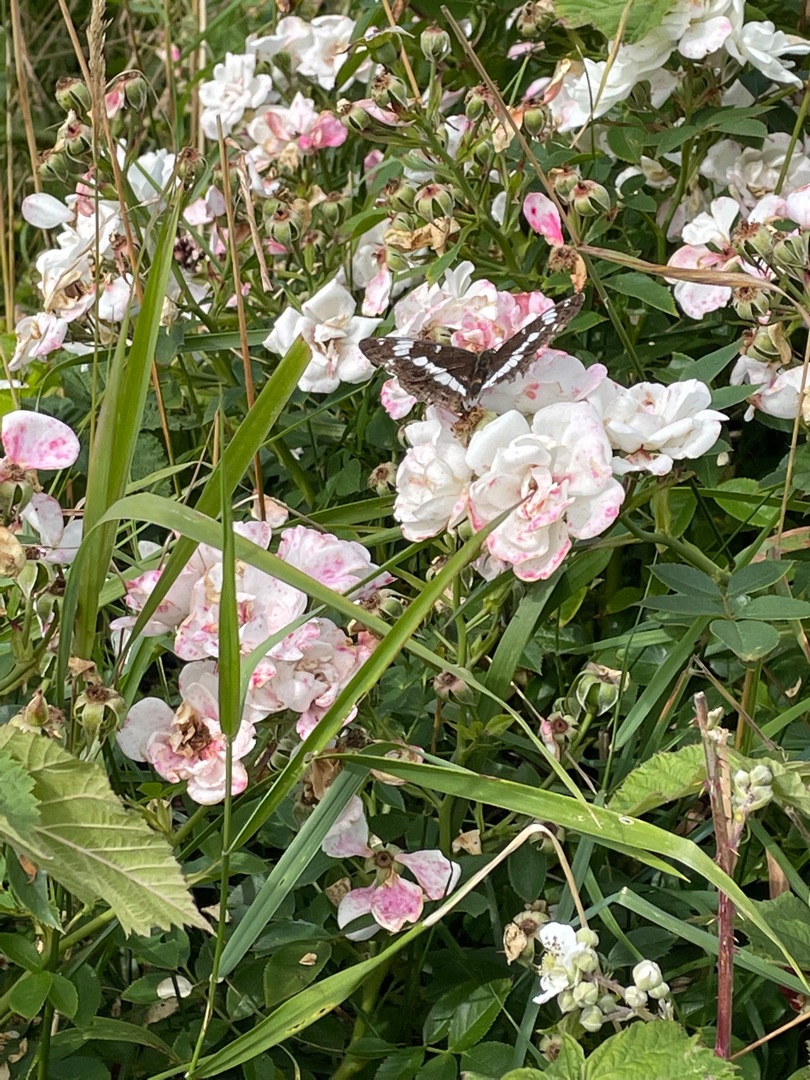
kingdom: Animalia
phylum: Arthropoda
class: Insecta
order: Lepidoptera
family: Nymphalidae
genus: Ladoga
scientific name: Ladoga camilla
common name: Hvid admiral
